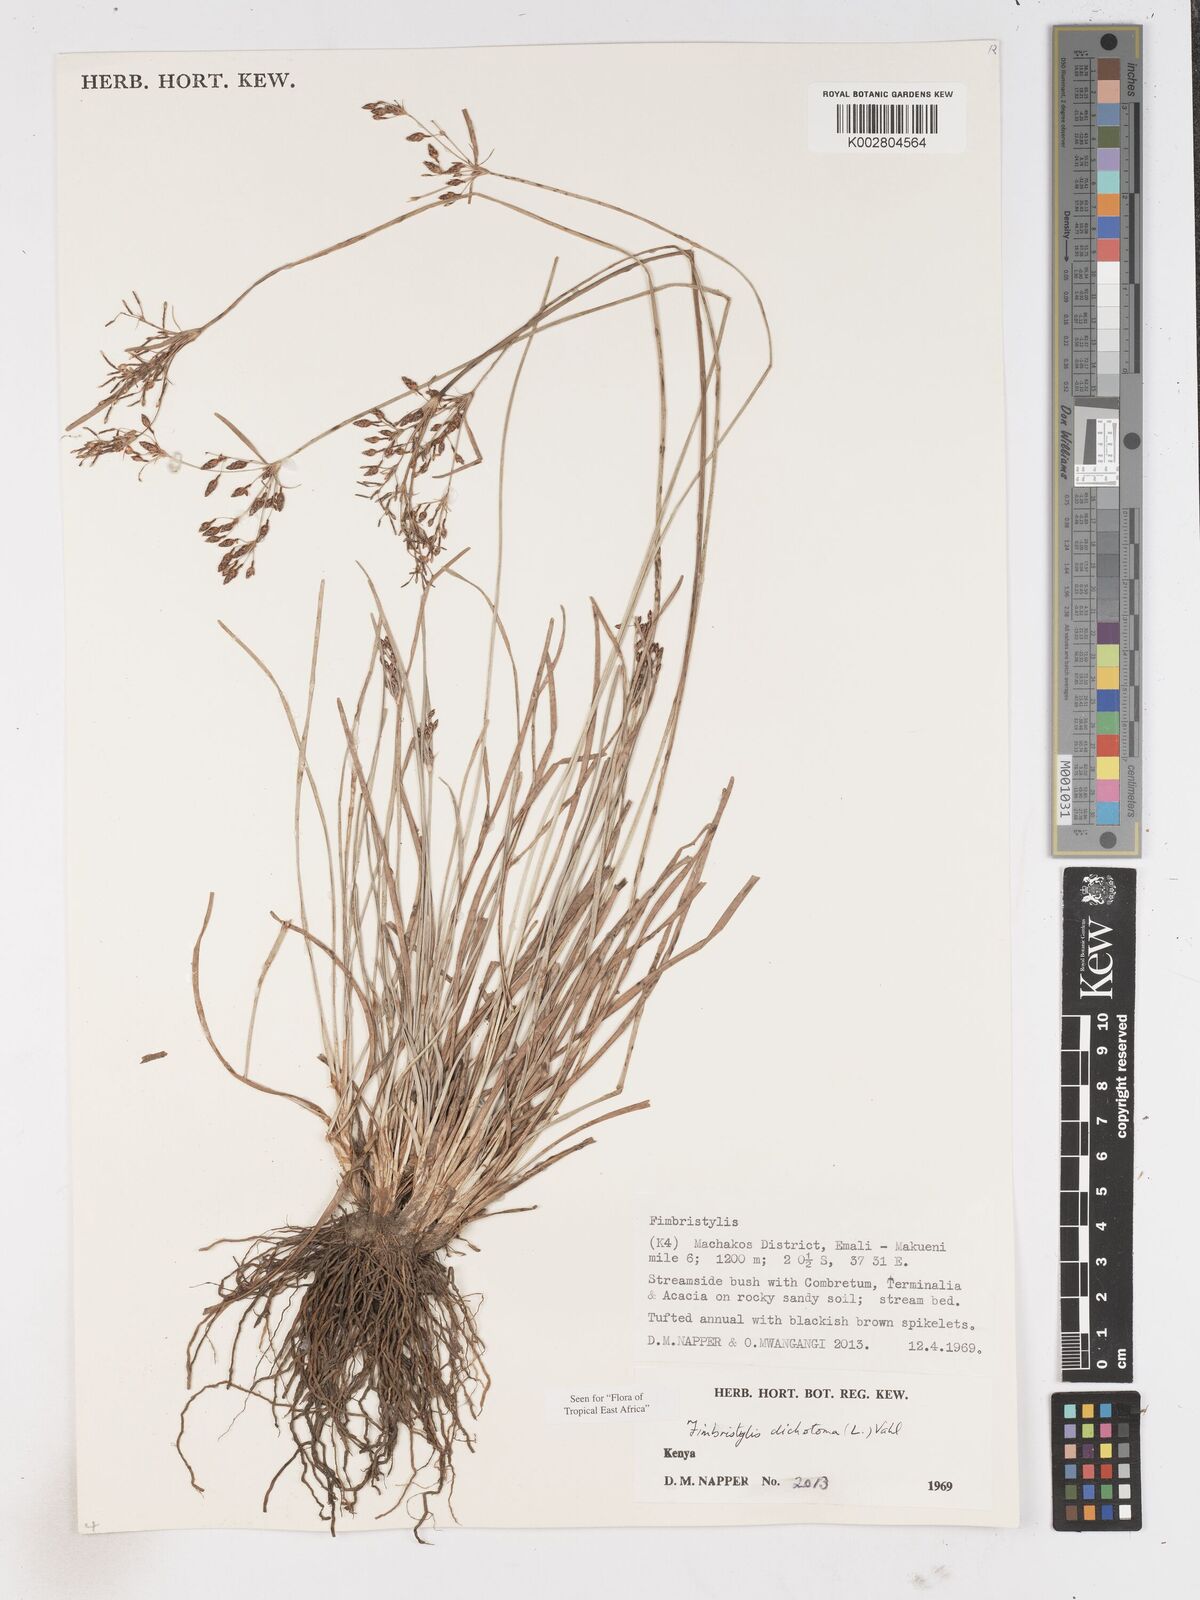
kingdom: Plantae
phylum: Tracheophyta
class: Liliopsida
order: Poales
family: Cyperaceae
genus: Fimbristylis
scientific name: Fimbristylis dichotoma
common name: Forked fimbry
